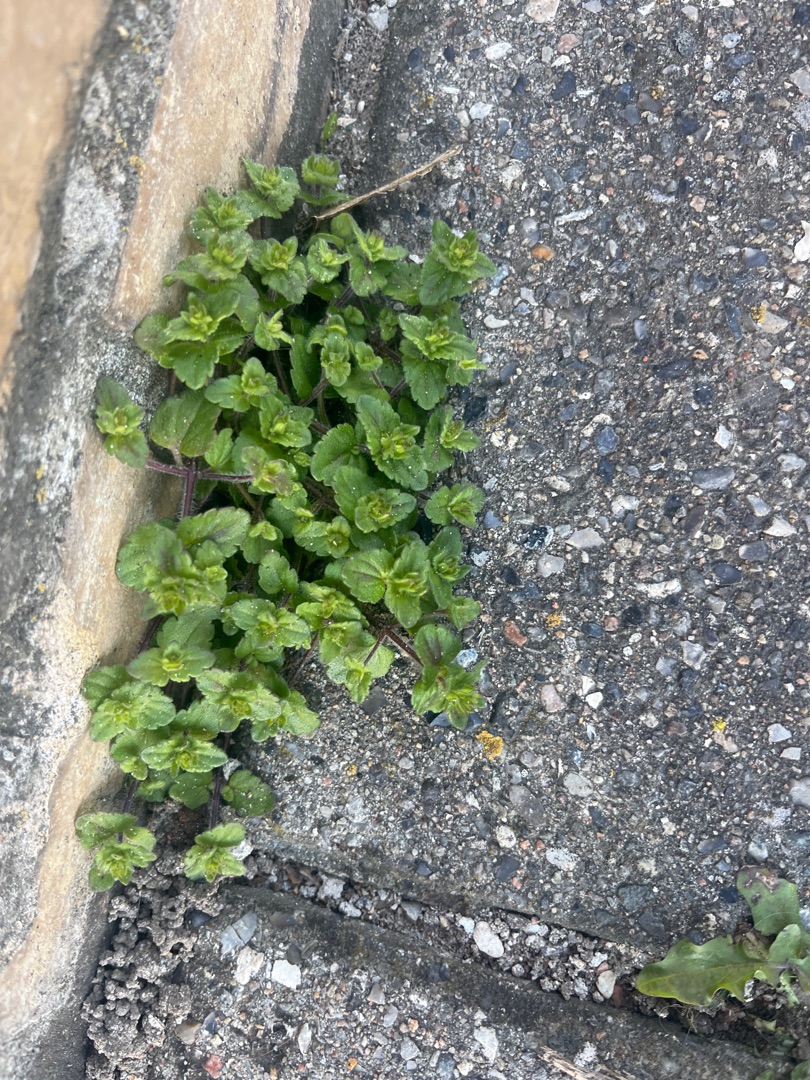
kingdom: Plantae
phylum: Tracheophyta
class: Magnoliopsida
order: Lamiales
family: Plantaginaceae
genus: Veronica
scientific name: Veronica chamaedrys
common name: Tveskægget ærenpris
